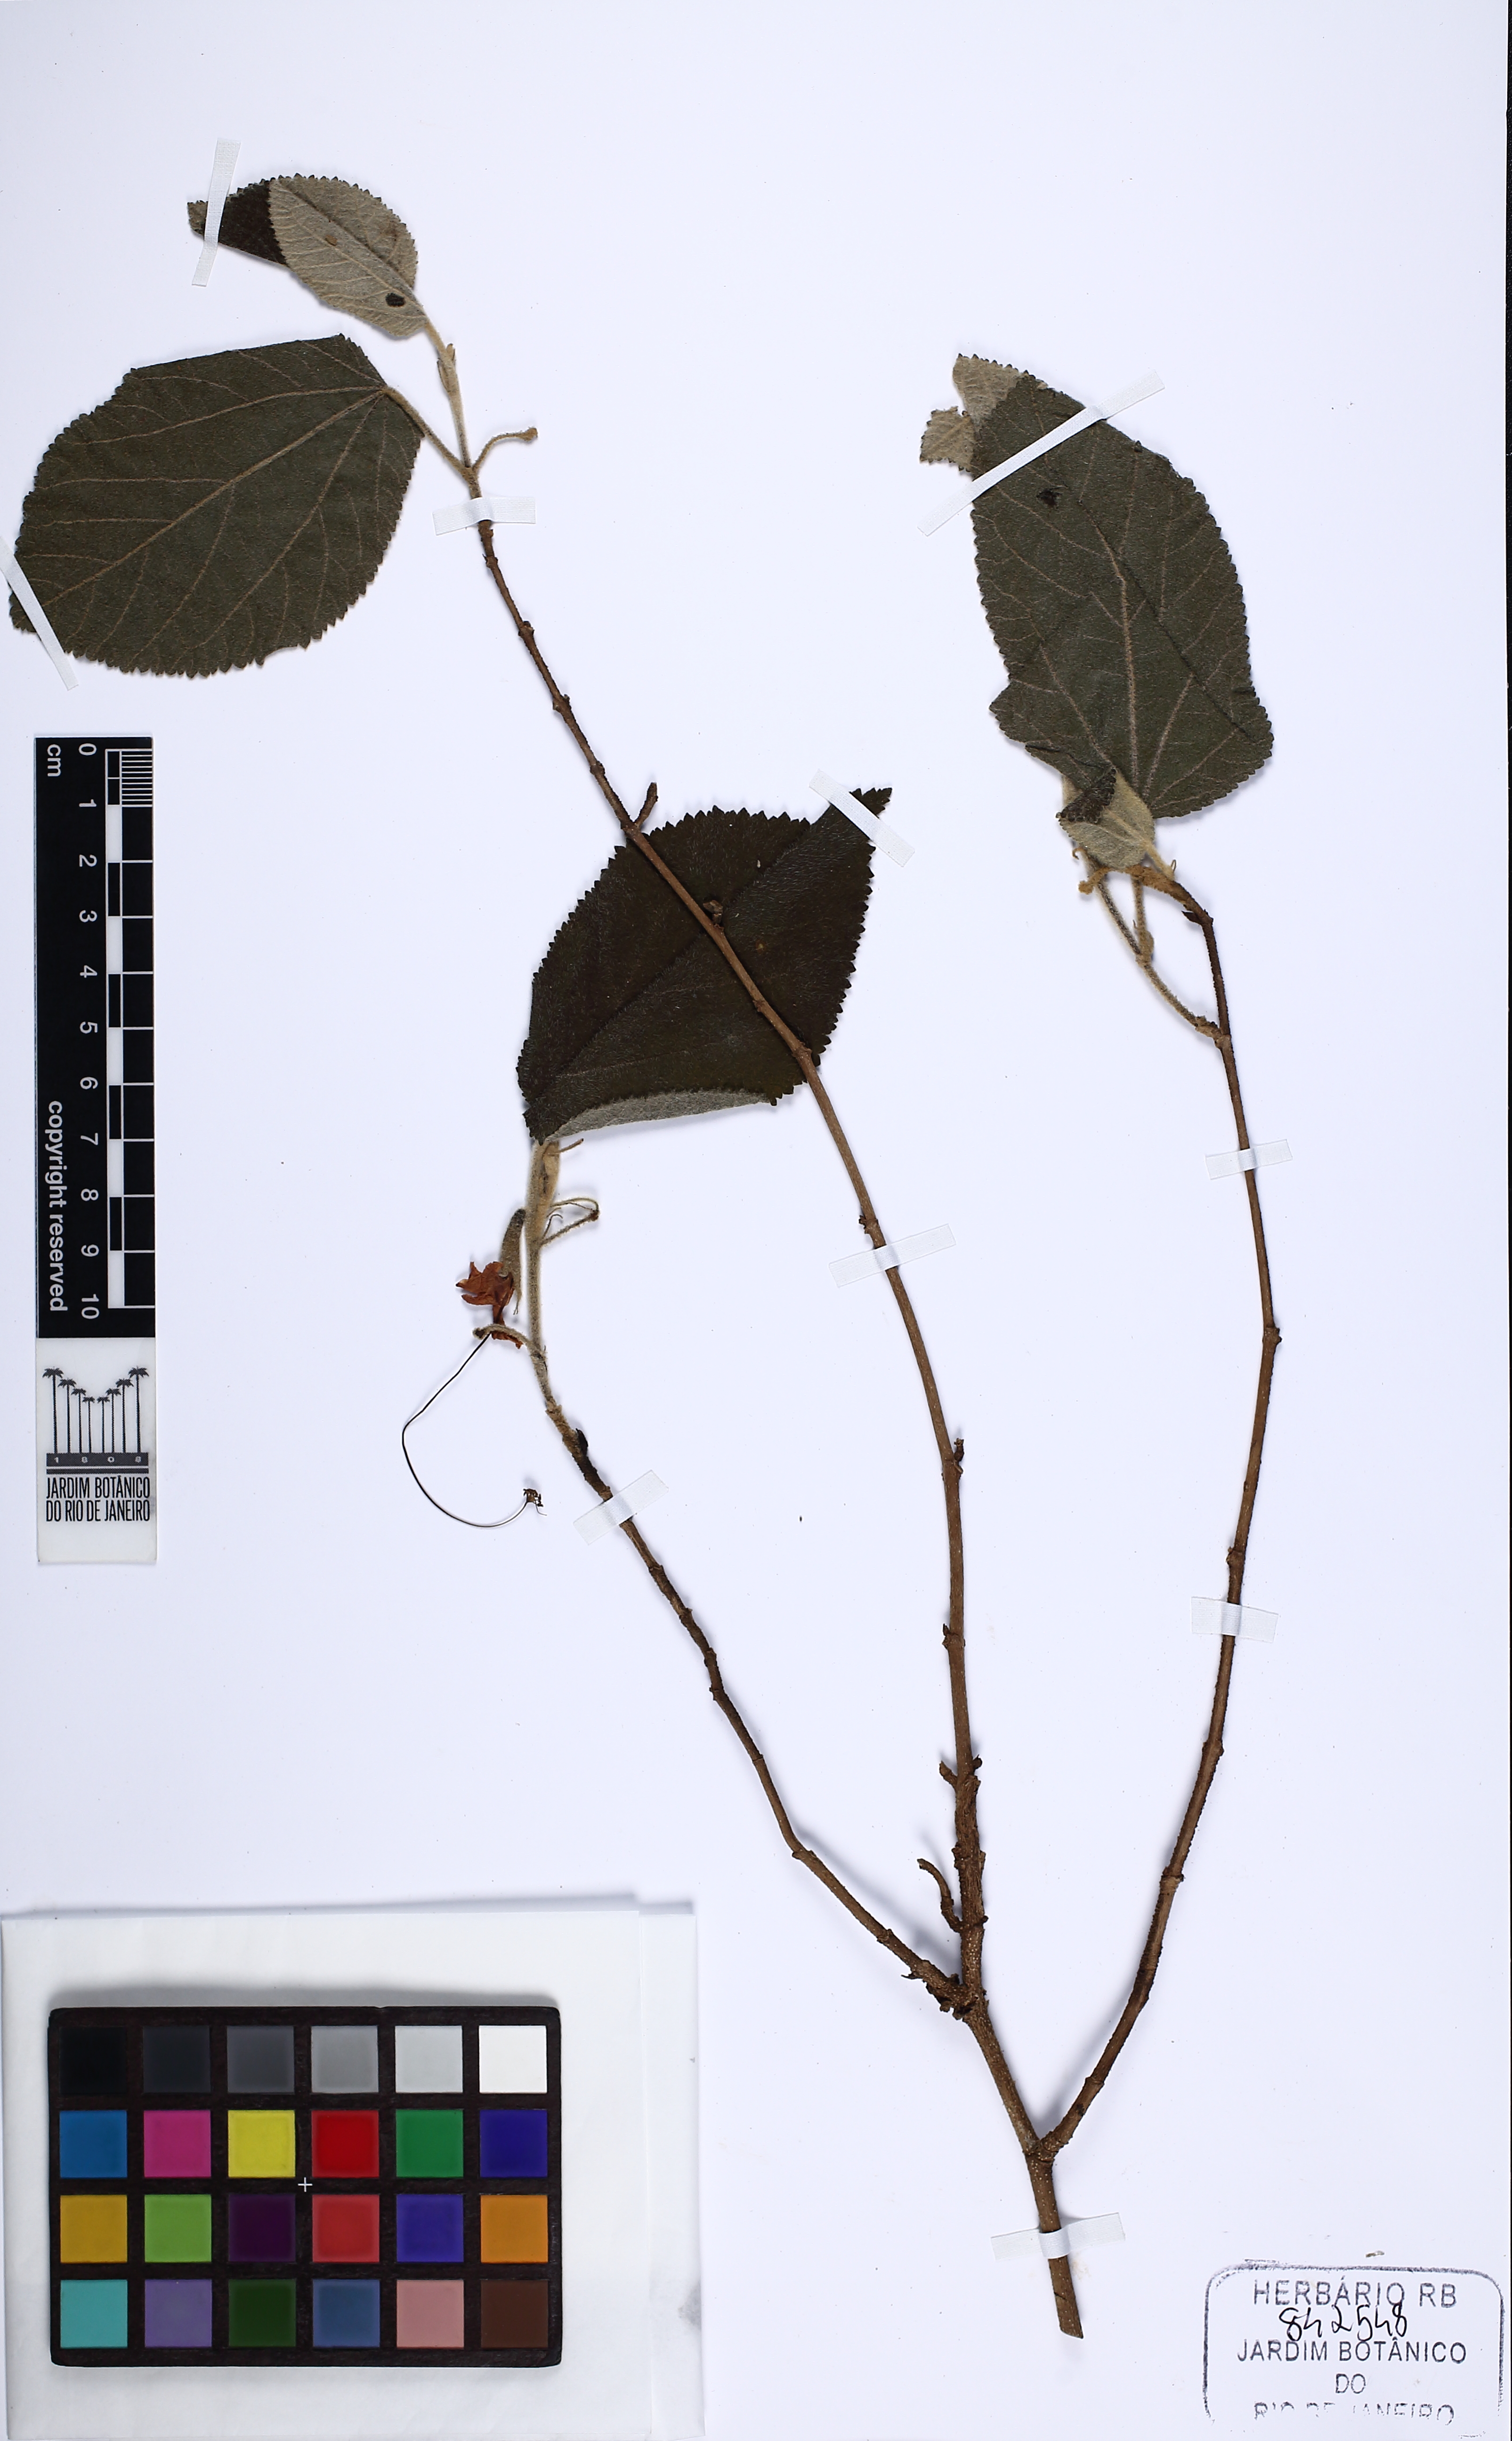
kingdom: Plantae
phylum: Tracheophyta
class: Magnoliopsida
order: Malvales
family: Malvaceae
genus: Helicteres
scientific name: Helicteres brevispira
